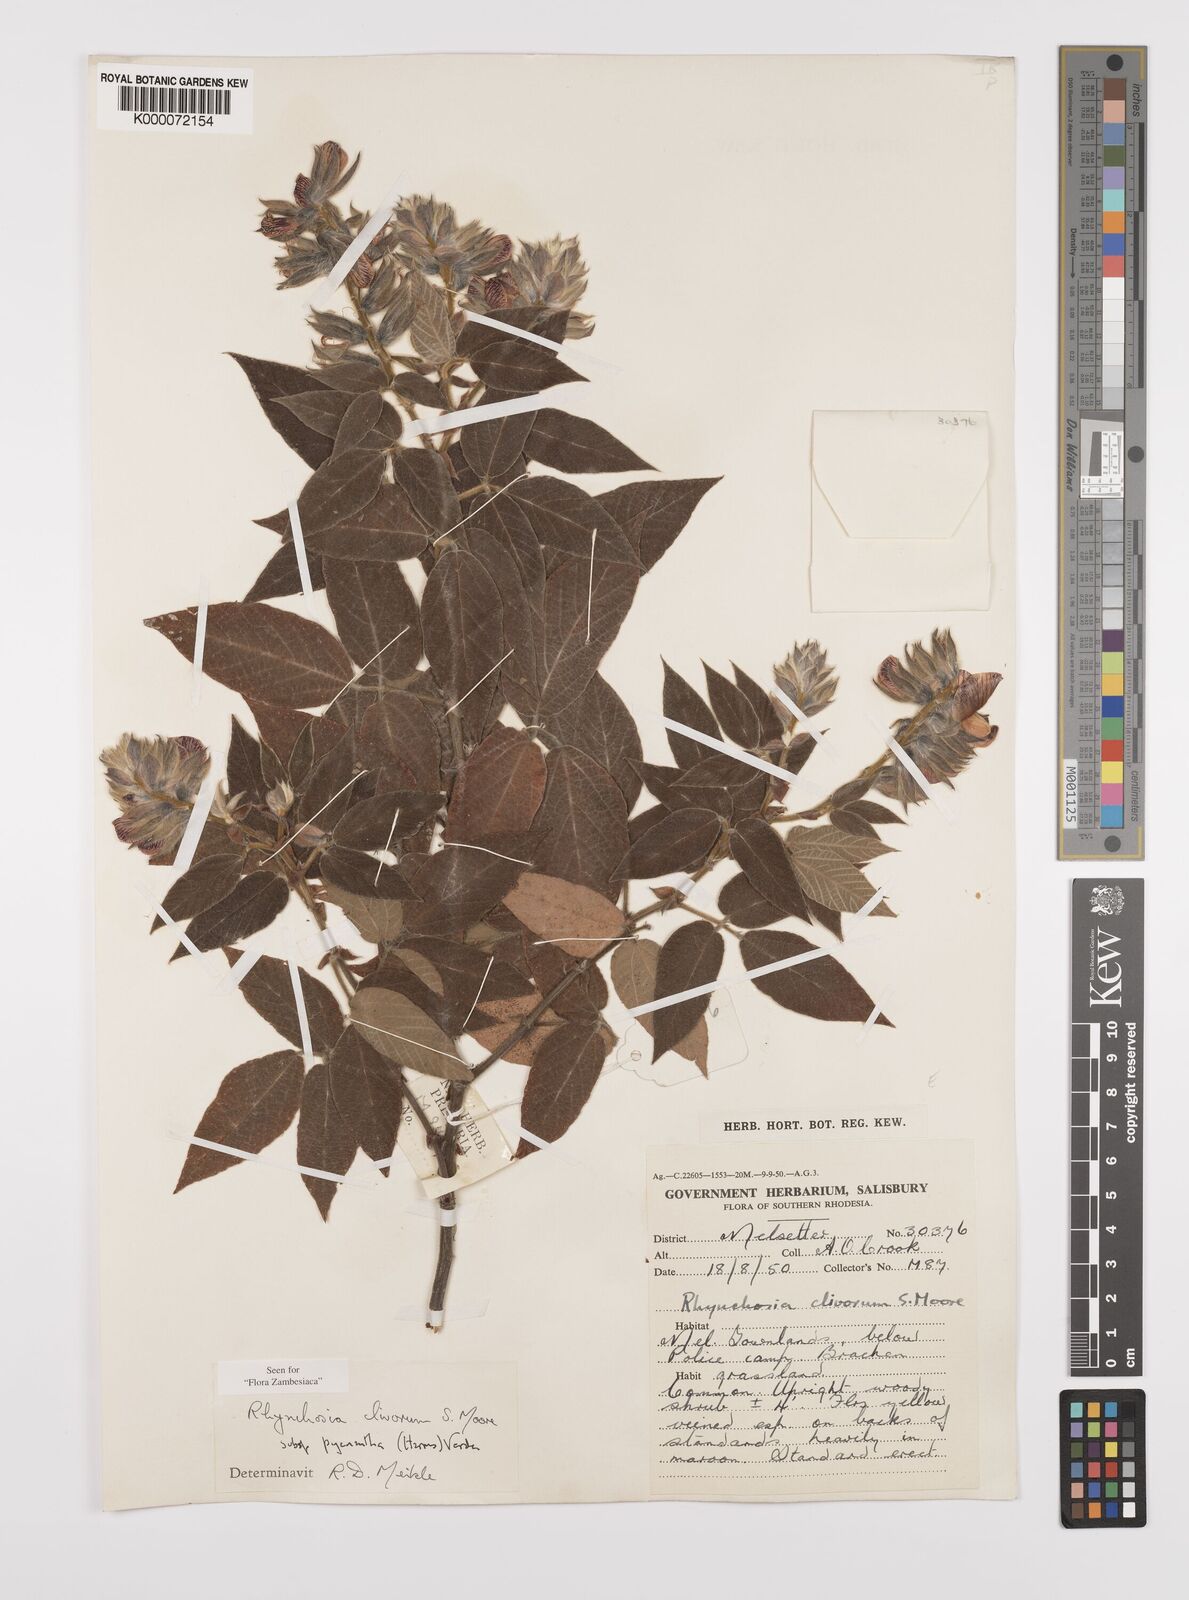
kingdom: Plantae
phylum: Tracheophyta
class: Magnoliopsida
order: Fabales
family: Fabaceae
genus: Rhynchosia
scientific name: Rhynchosia clivorum
